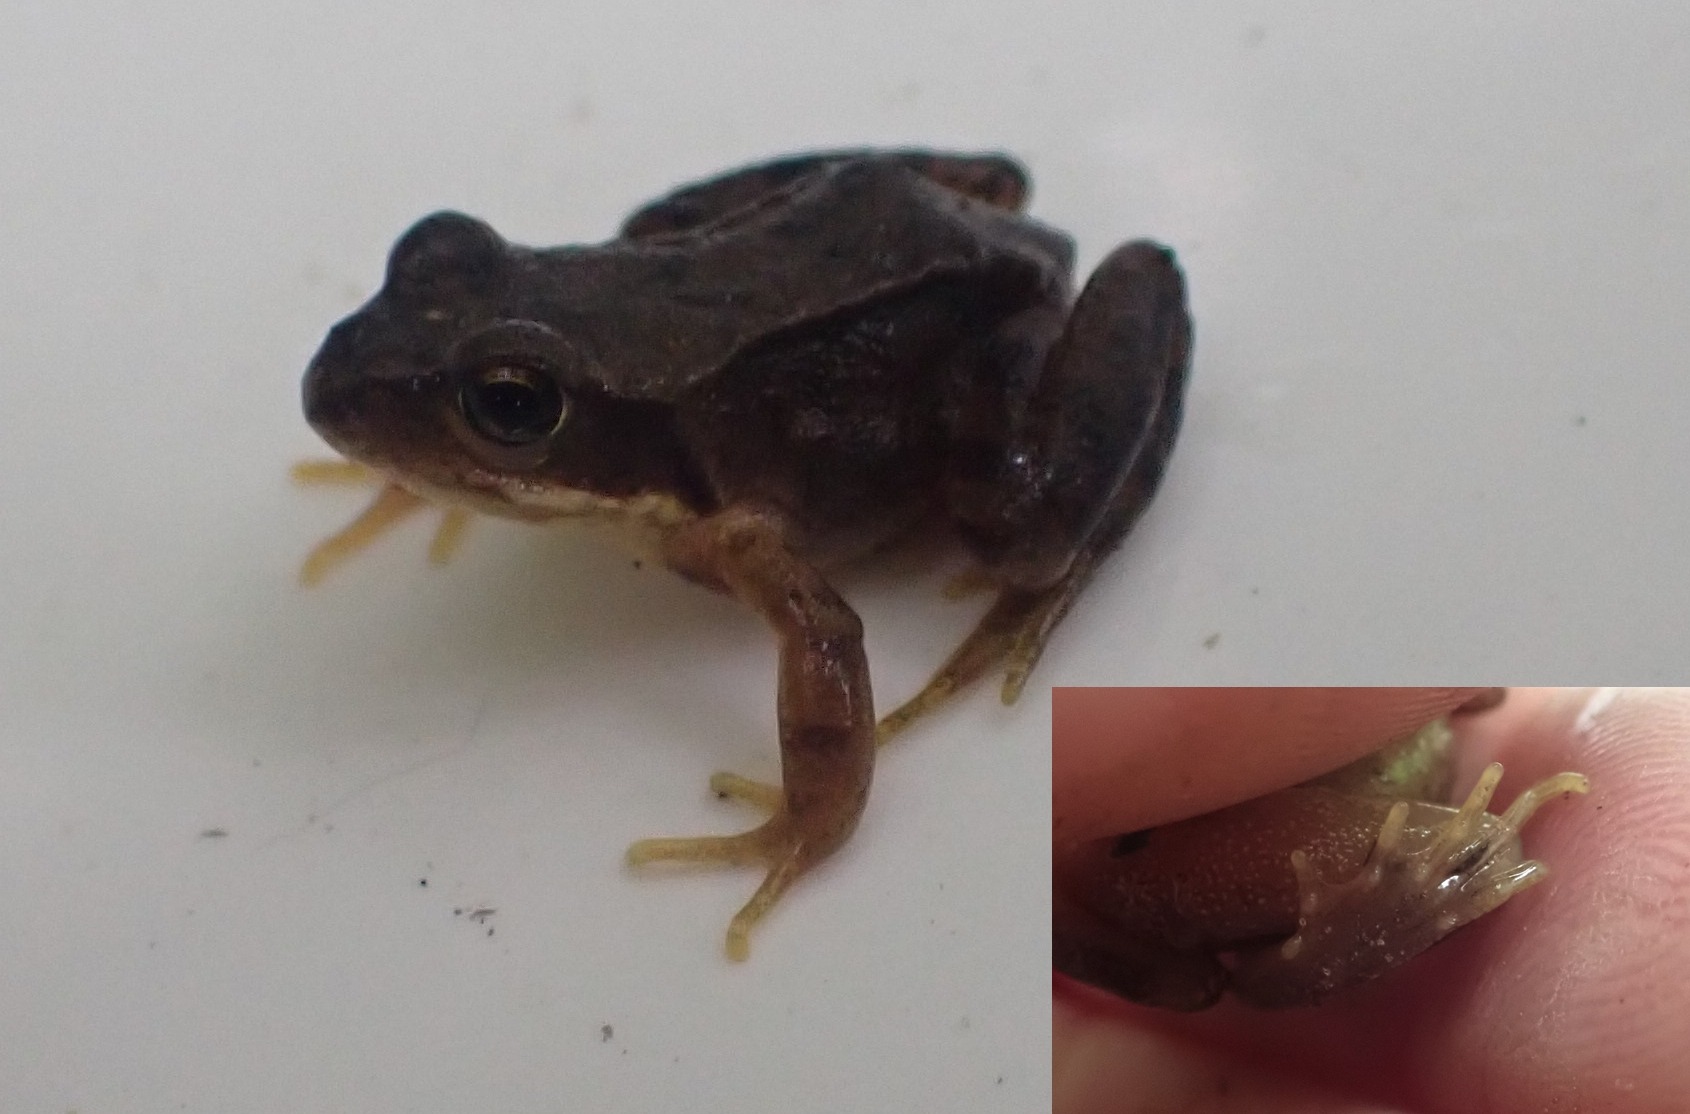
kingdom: Animalia
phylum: Chordata
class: Amphibia
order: Anura
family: Ranidae
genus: Rana
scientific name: Rana temporaria
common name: Butsnudet frø
